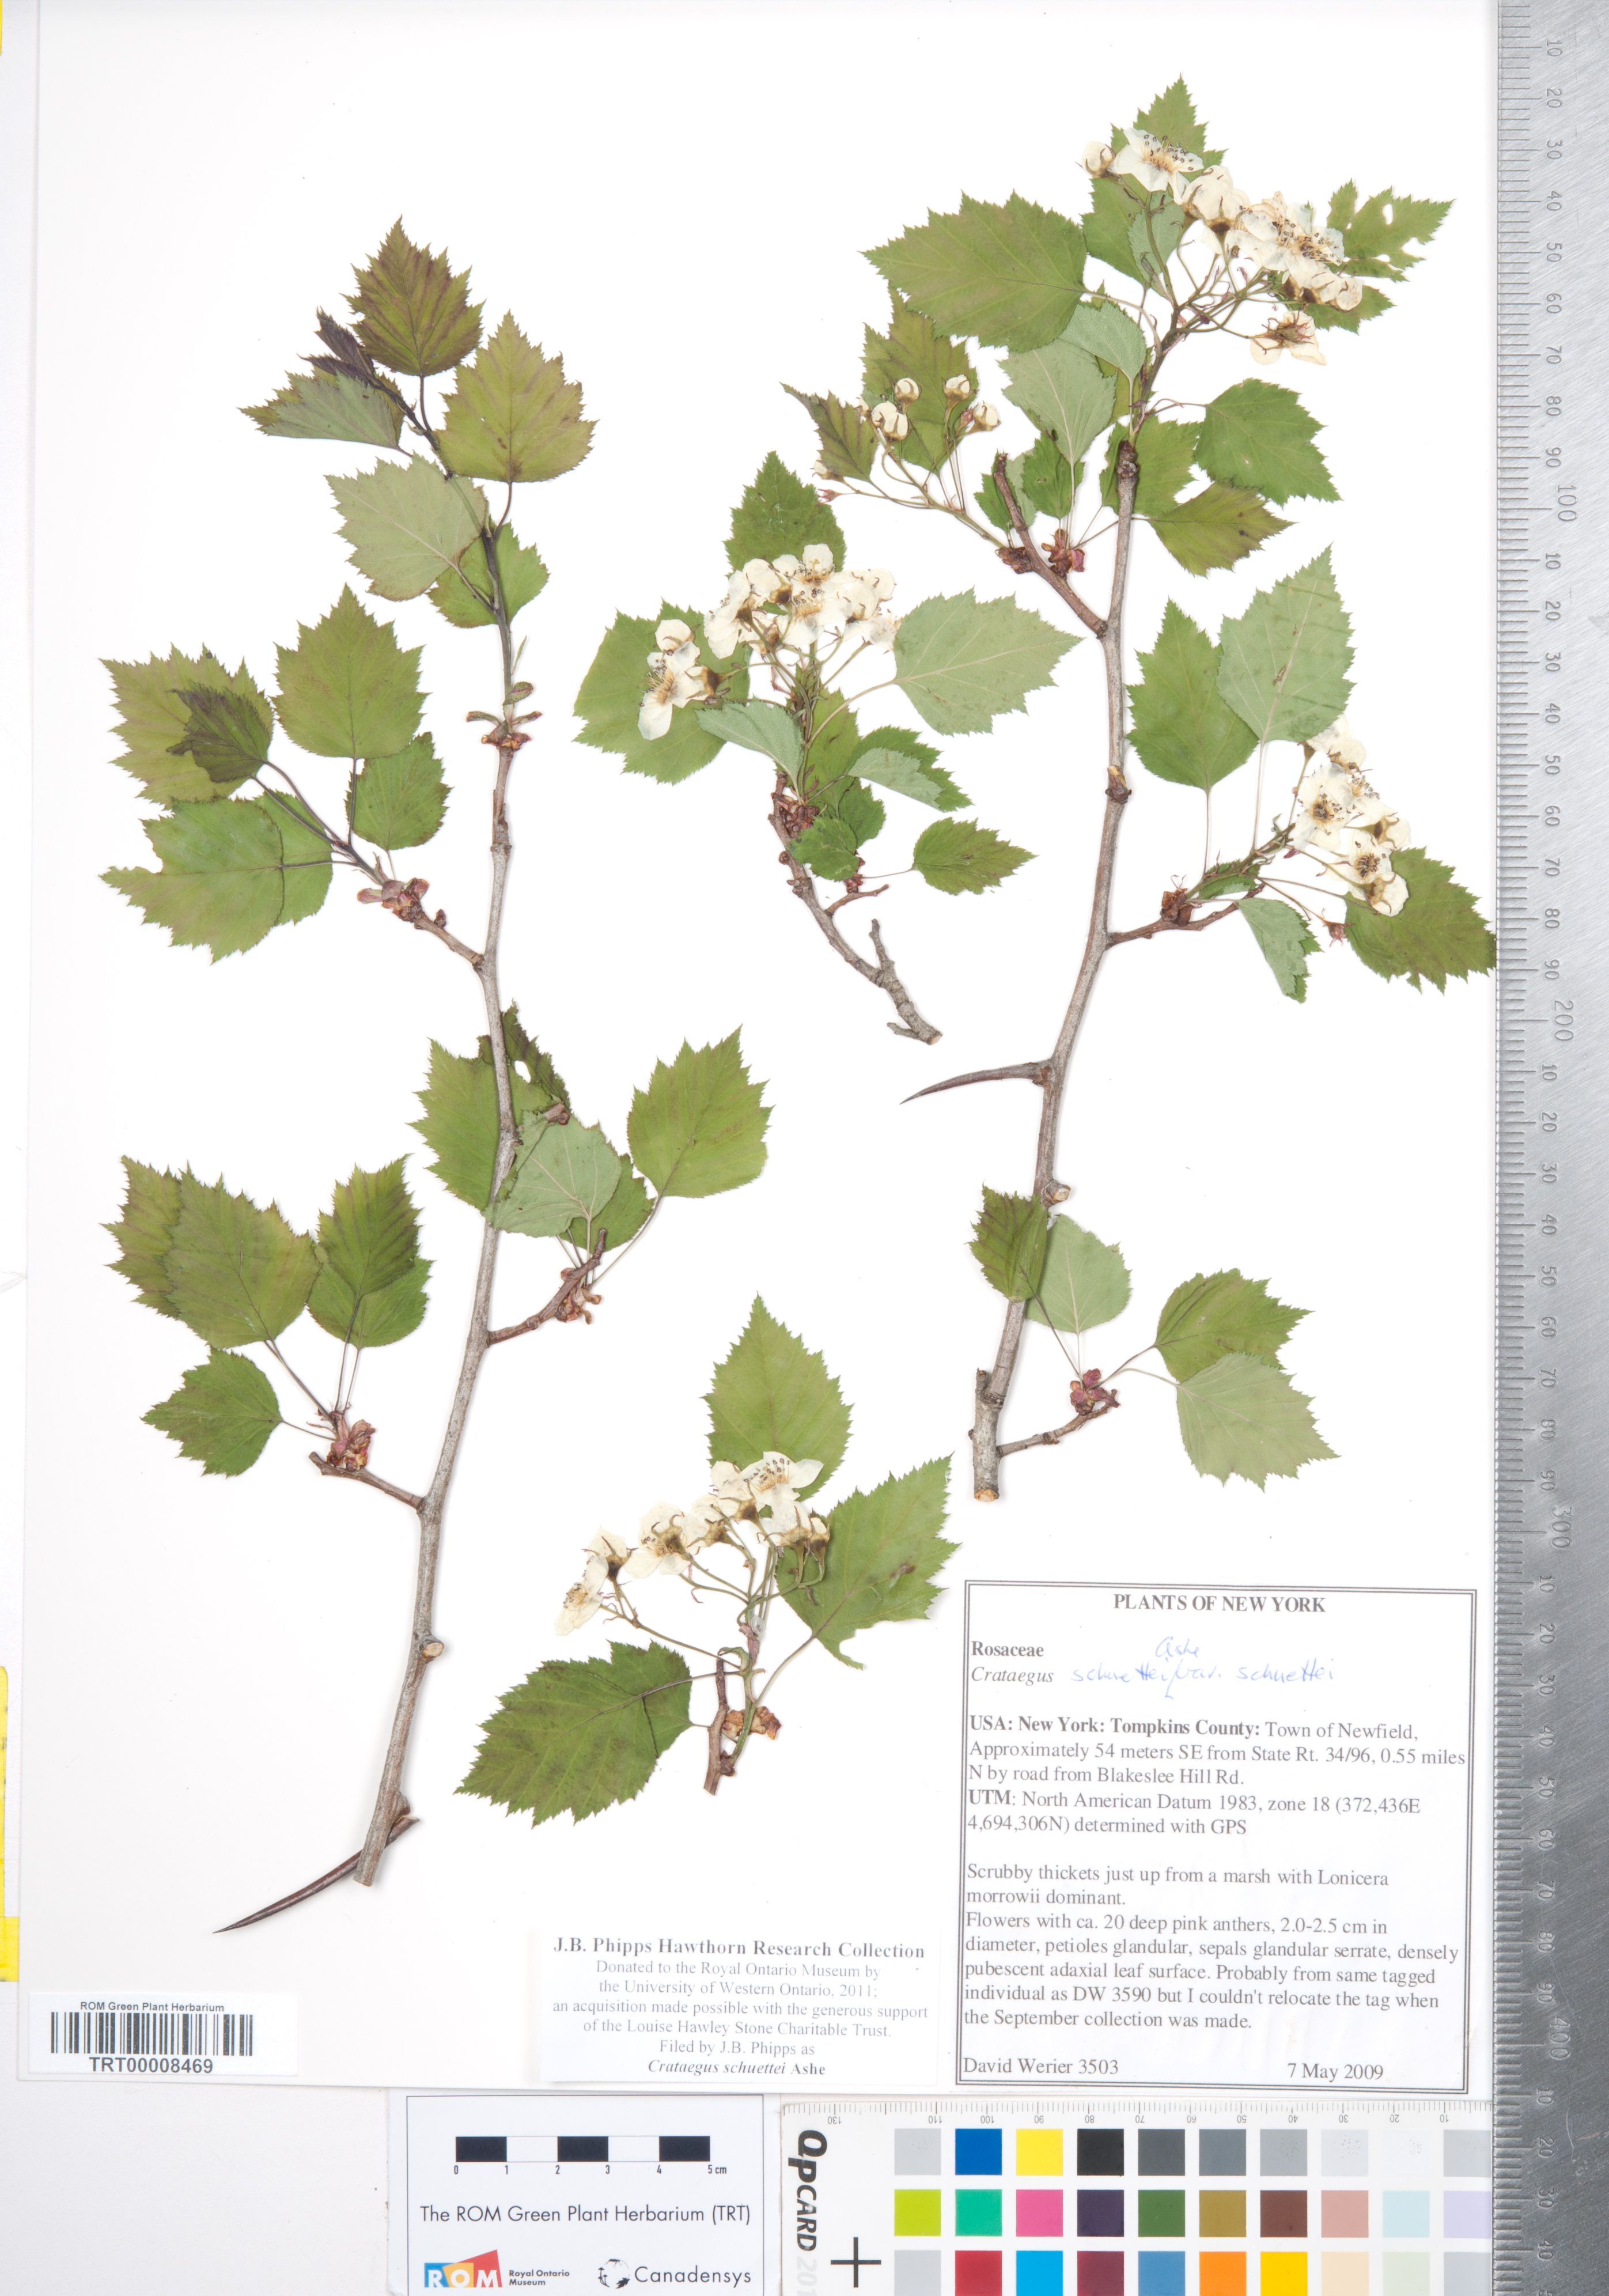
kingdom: Plantae
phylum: Tracheophyta
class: Magnoliopsida
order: Rosales
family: Rosaceae
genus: Crataegus
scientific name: Crataegus schuettei
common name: Schuette's hawthorn
